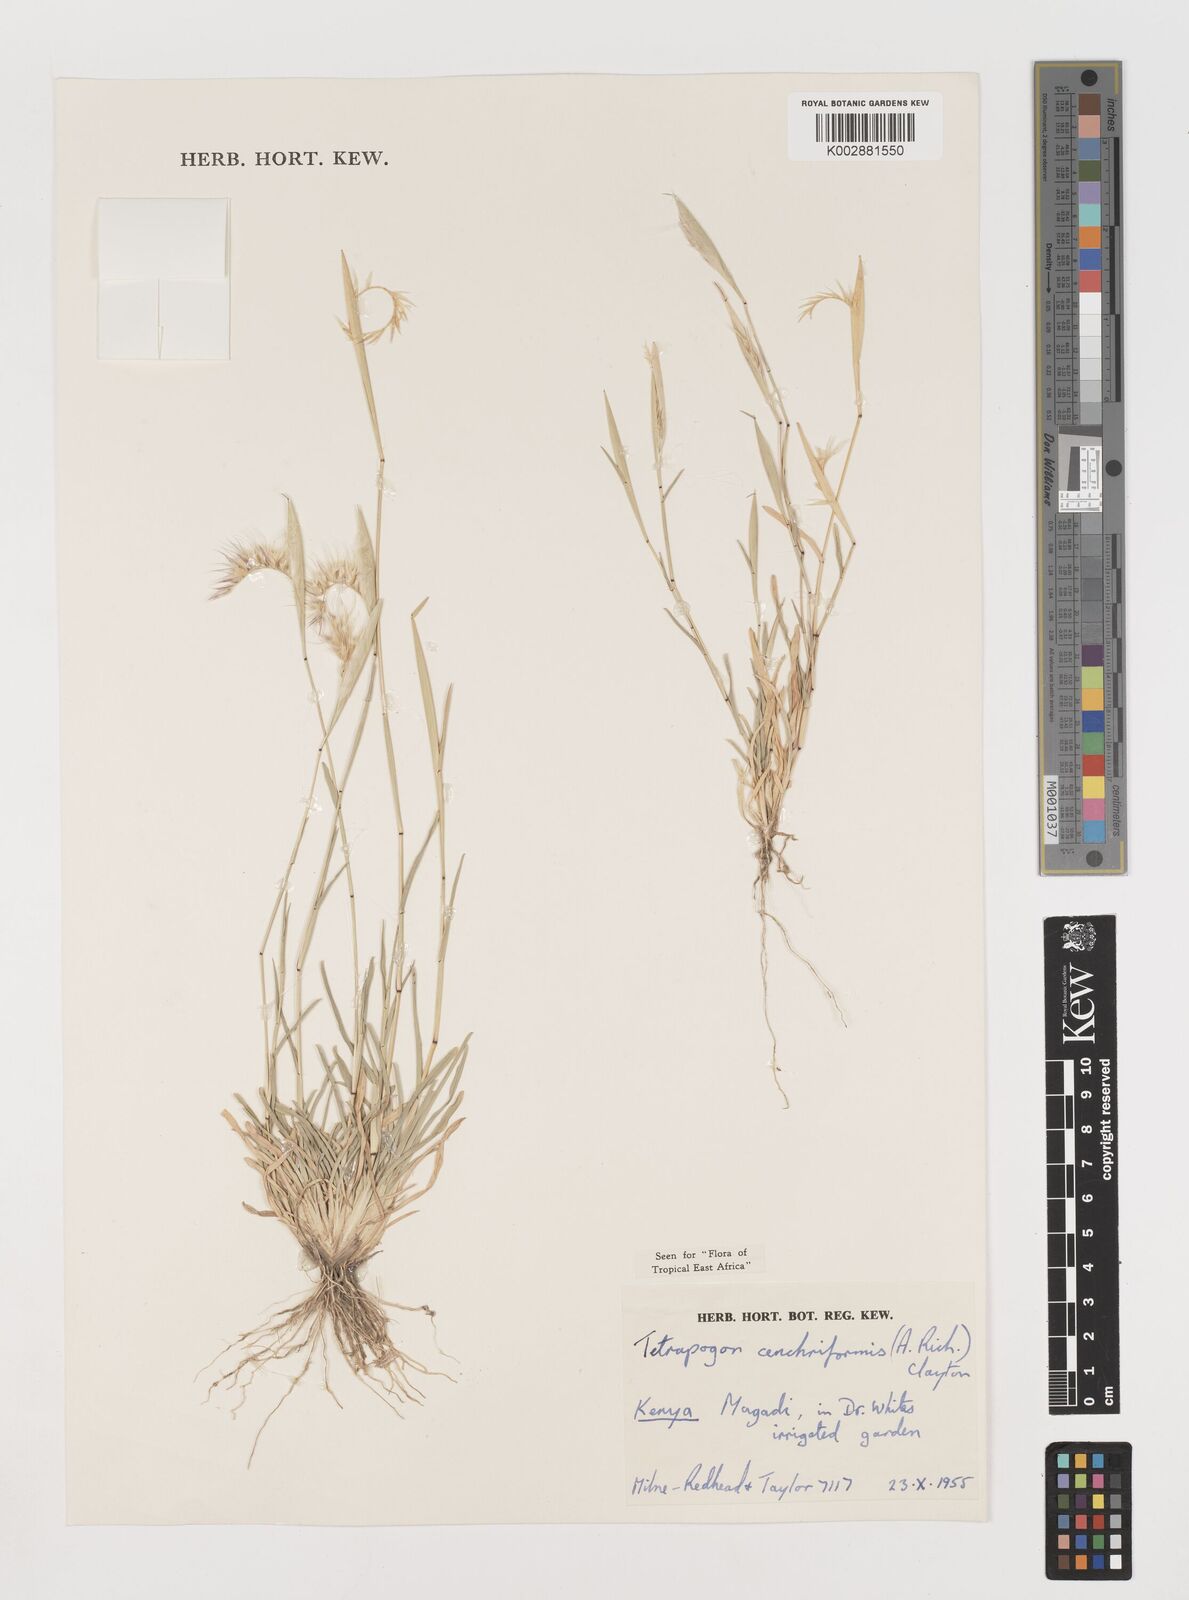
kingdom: Plantae
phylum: Tracheophyta
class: Liliopsida
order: Poales
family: Poaceae
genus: Tetrapogon
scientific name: Tetrapogon cenchriformis
